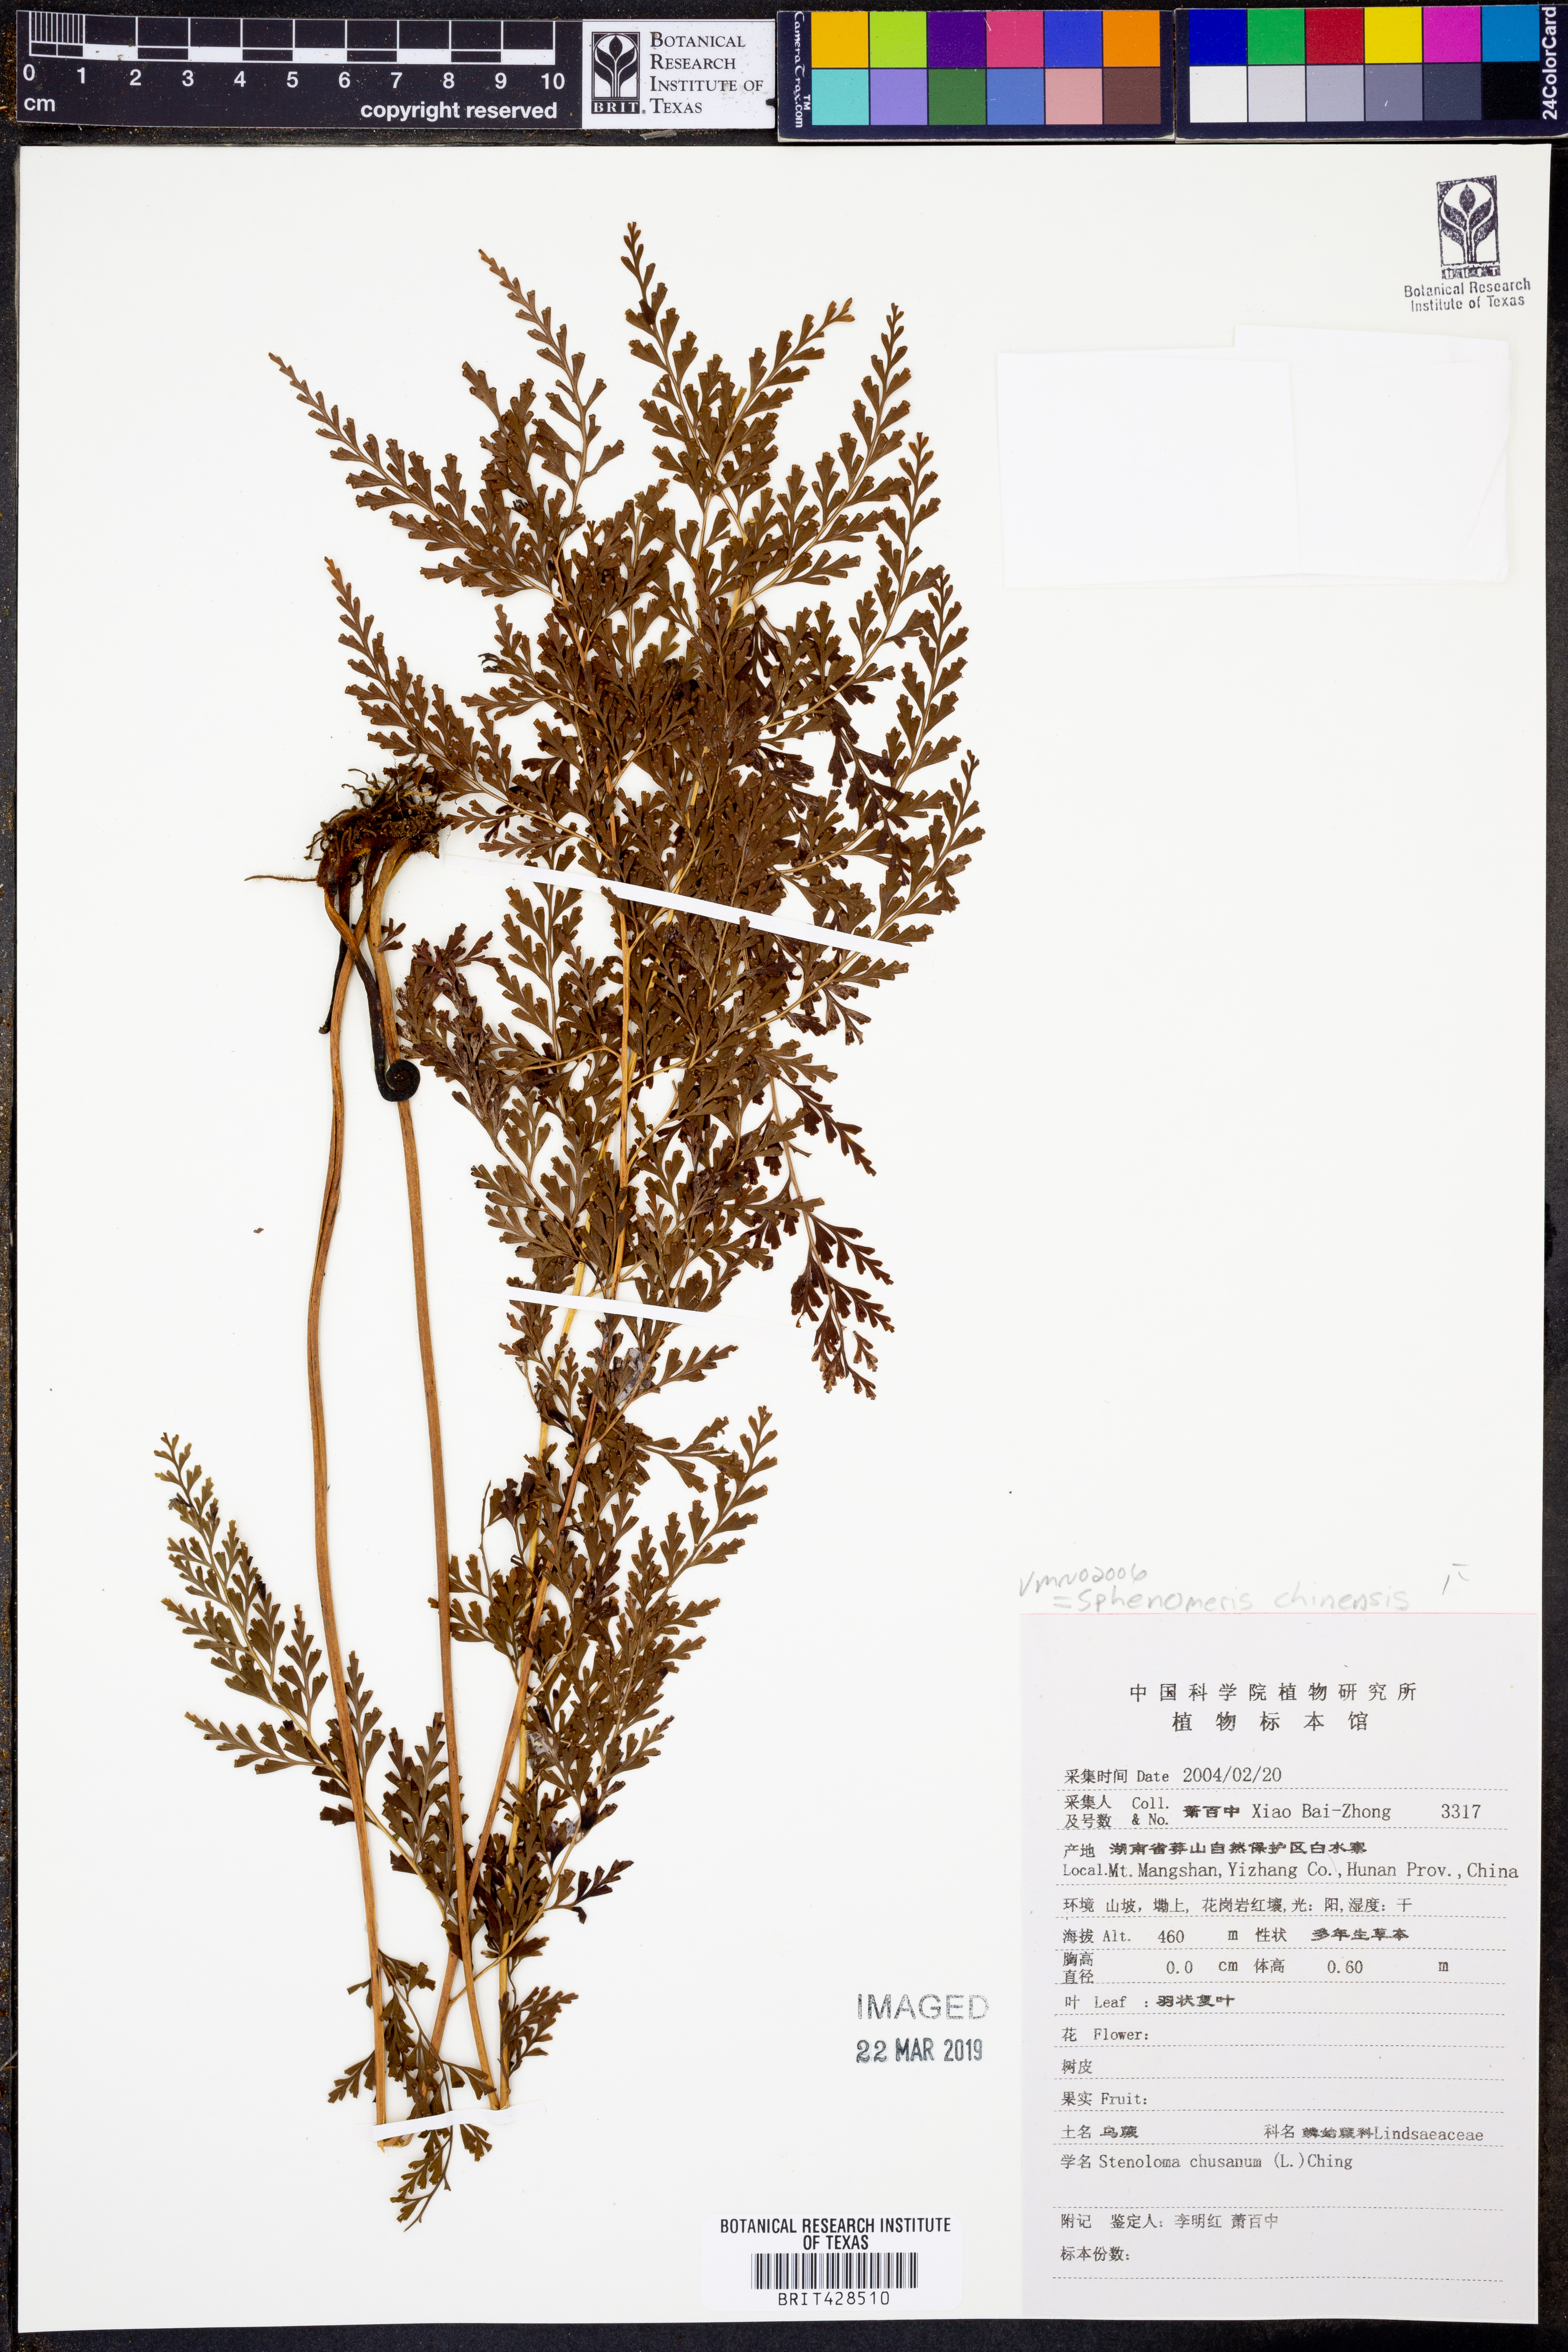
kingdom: Plantae
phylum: Tracheophyta
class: Polypodiopsida
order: Polypodiales
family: Lindsaeaceae
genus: Odontosoria
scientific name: Odontosoria chinensis
